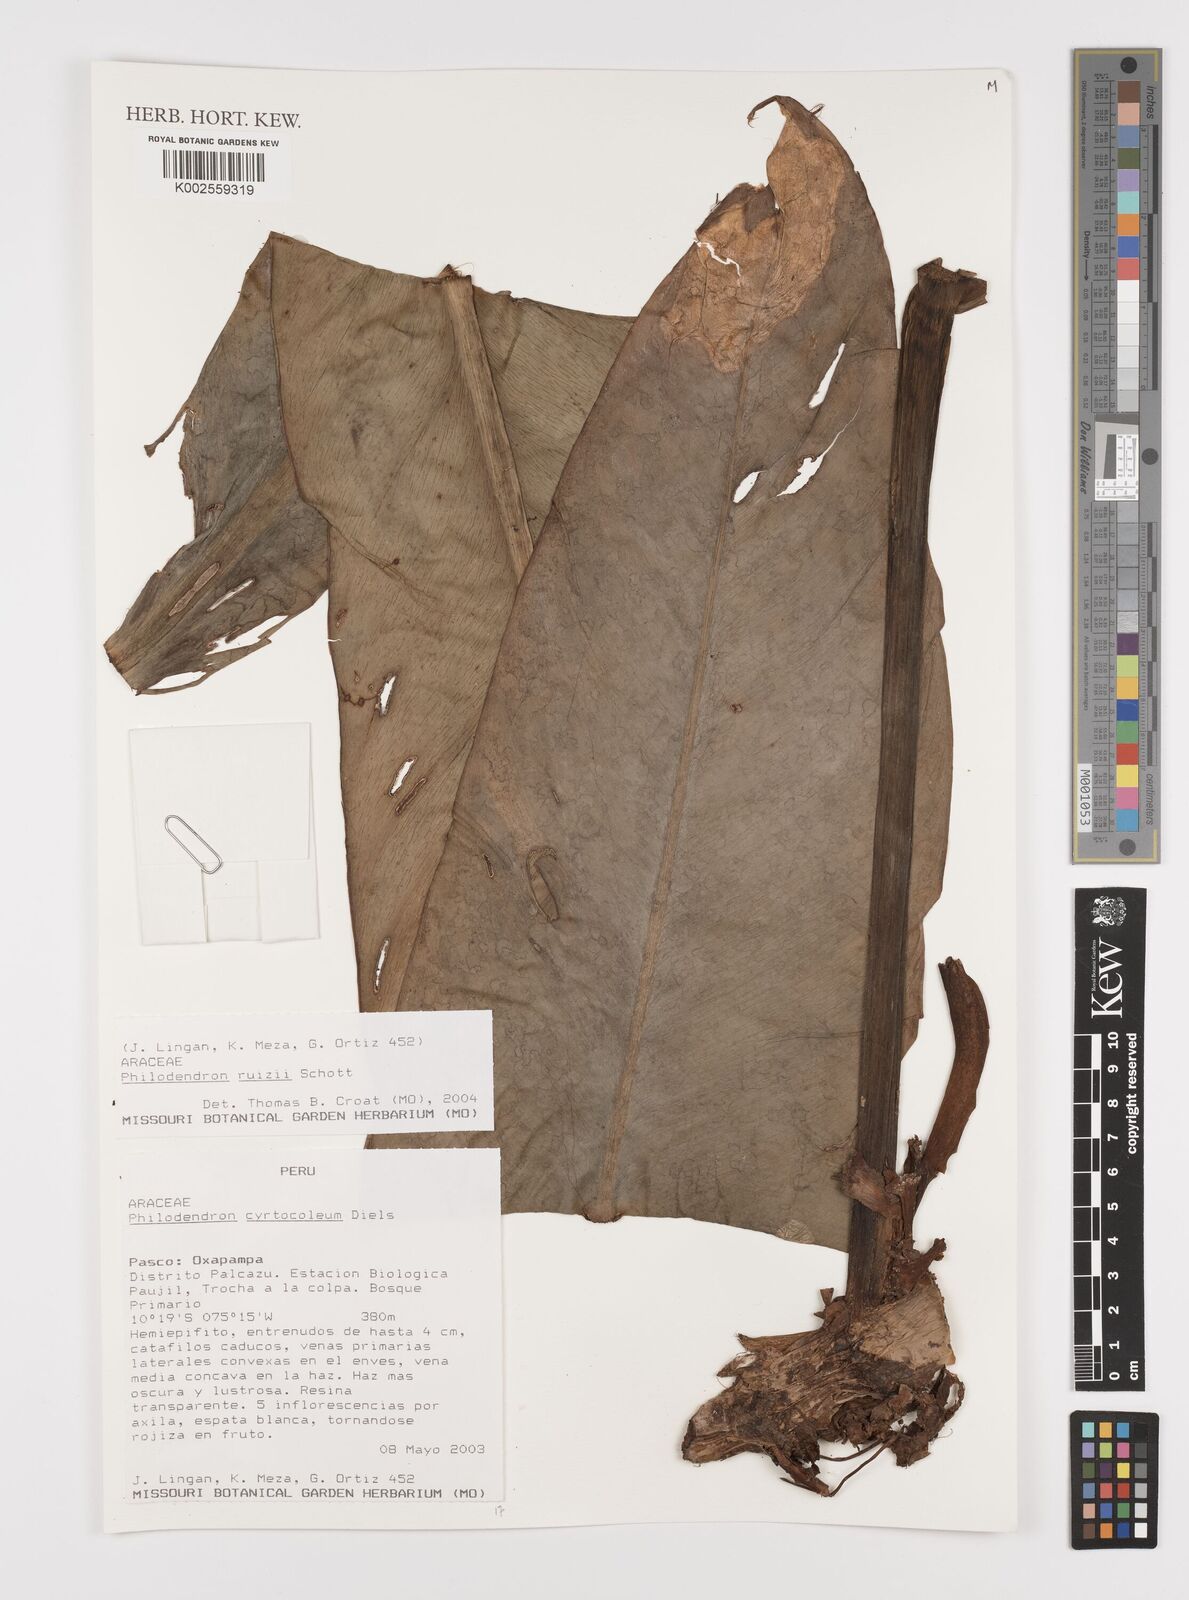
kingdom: Plantae
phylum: Tracheophyta
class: Liliopsida
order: Alismatales
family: Araceae
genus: Philodendron
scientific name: Philodendron ruizii
